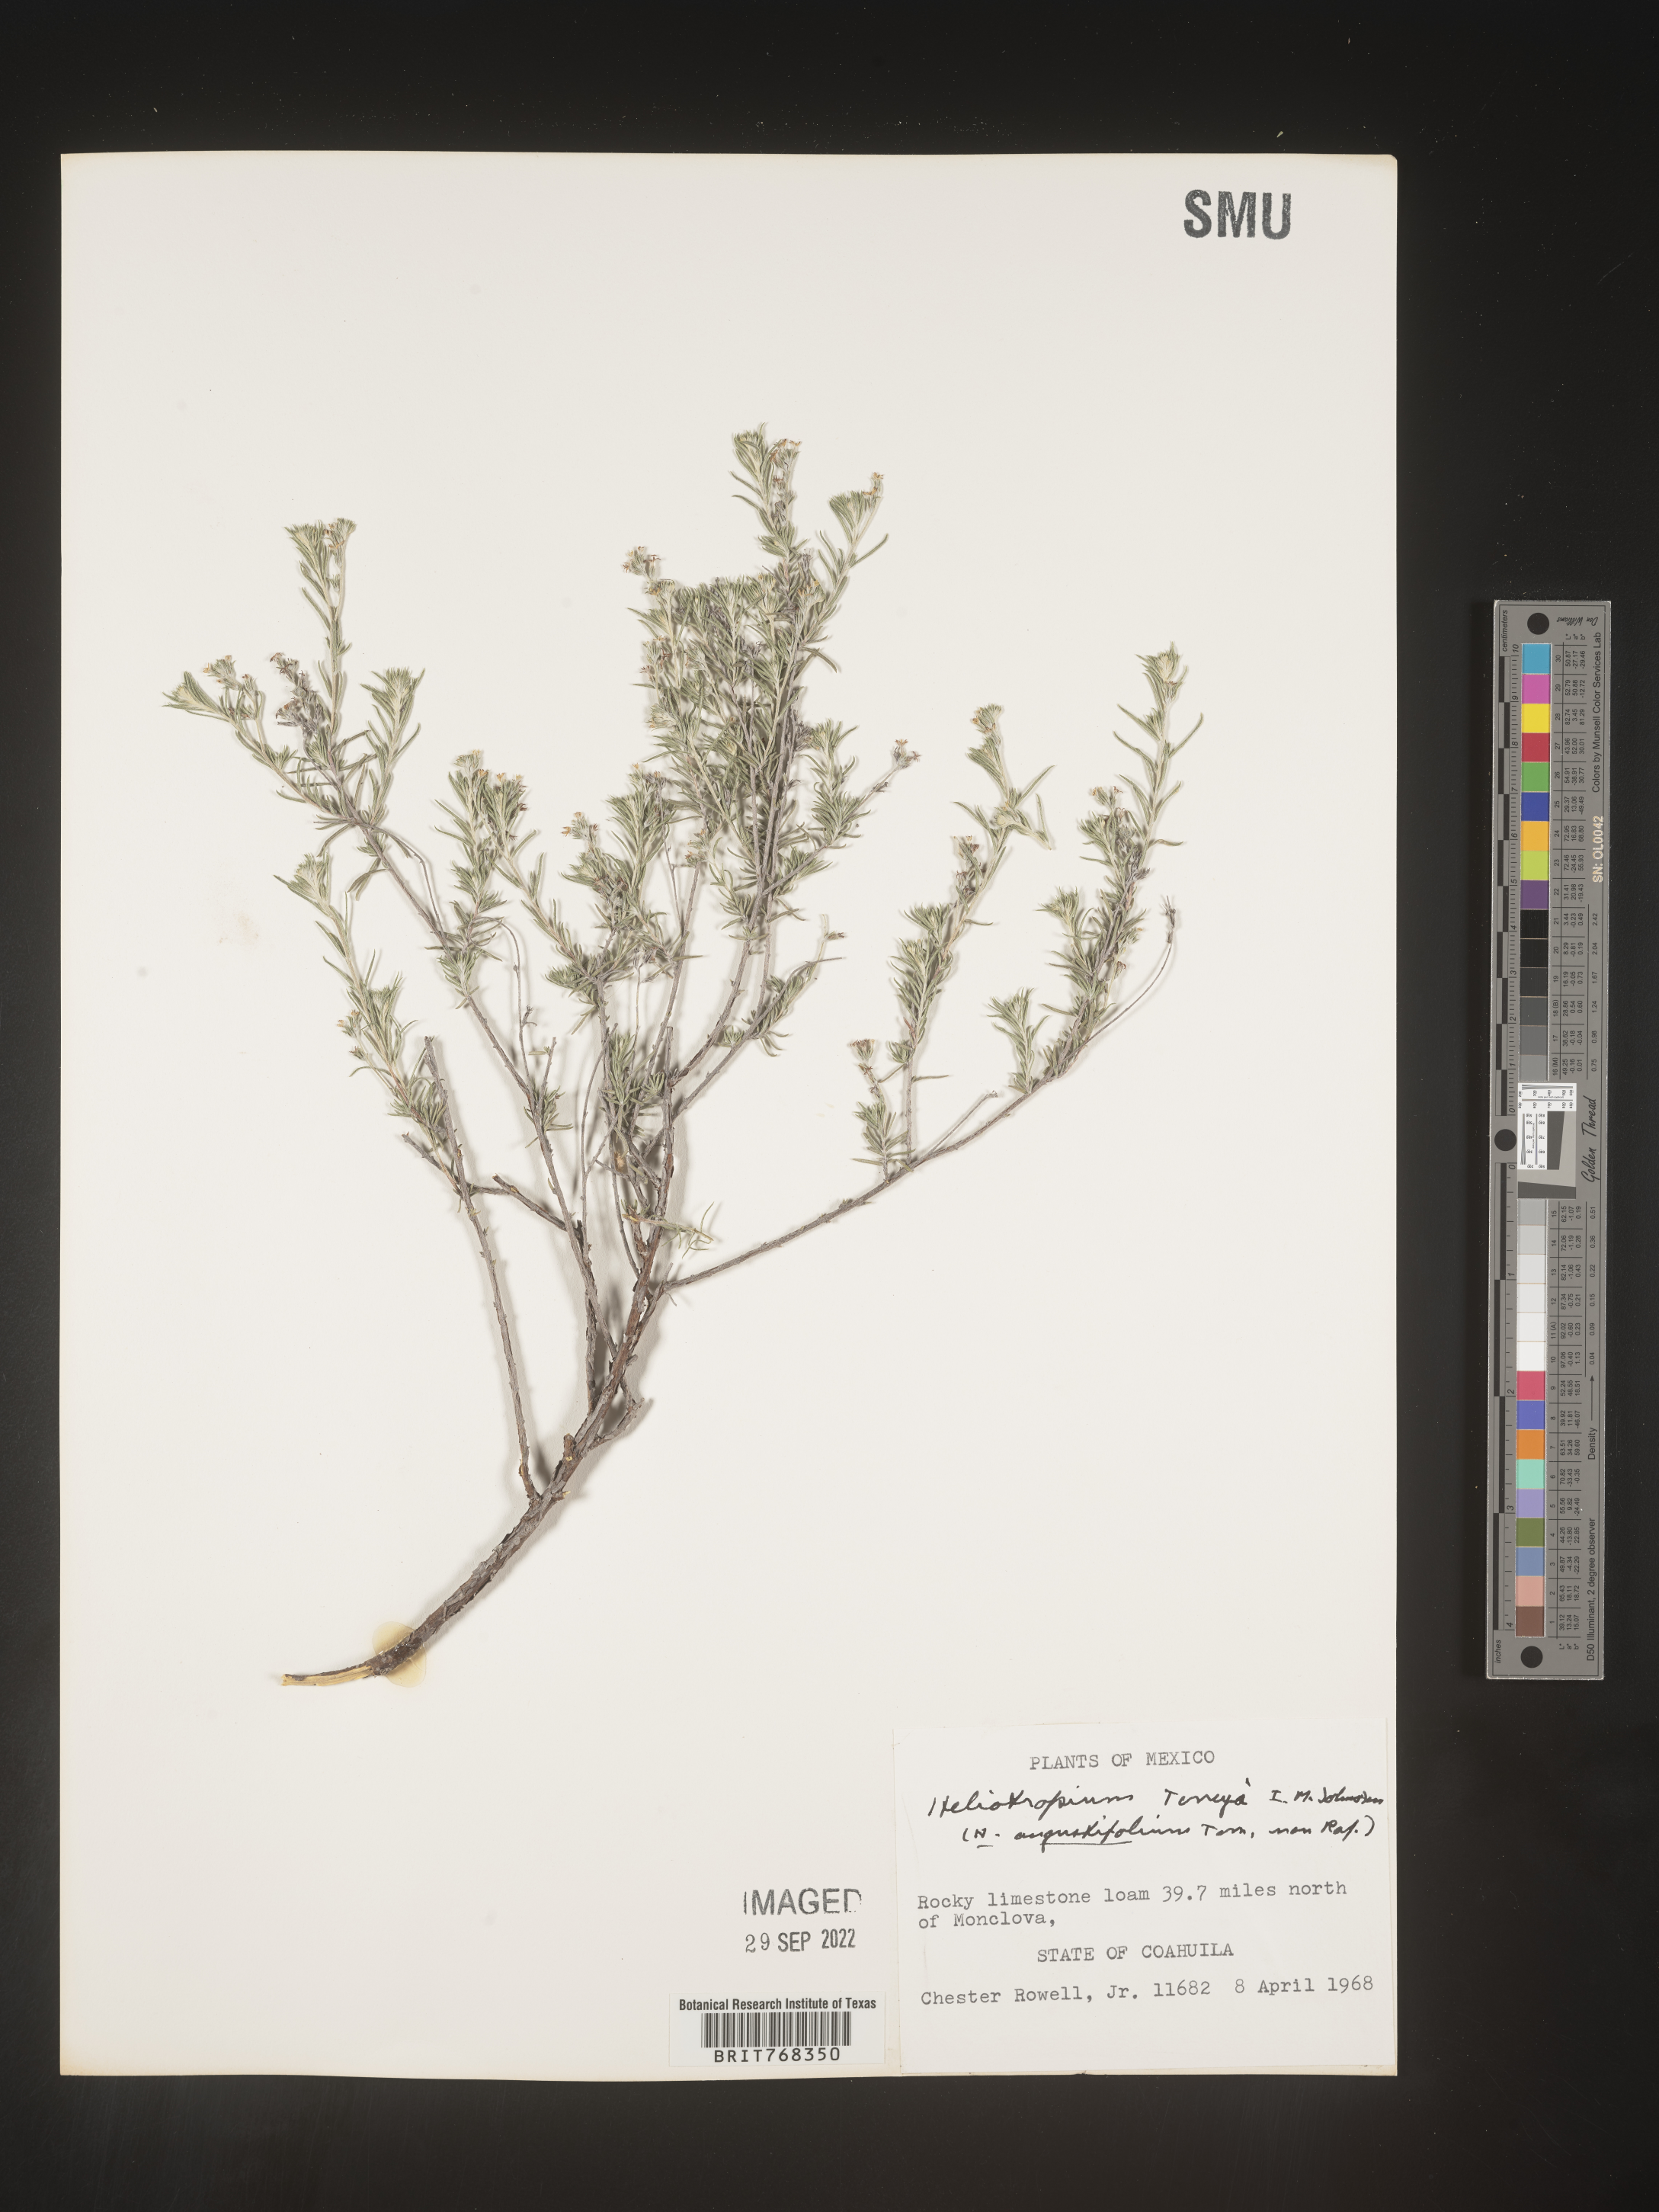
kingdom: Plantae
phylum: Tracheophyta
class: Magnoliopsida
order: Boraginales
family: Heliotropiaceae
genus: Heliotropium
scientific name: Heliotropium
